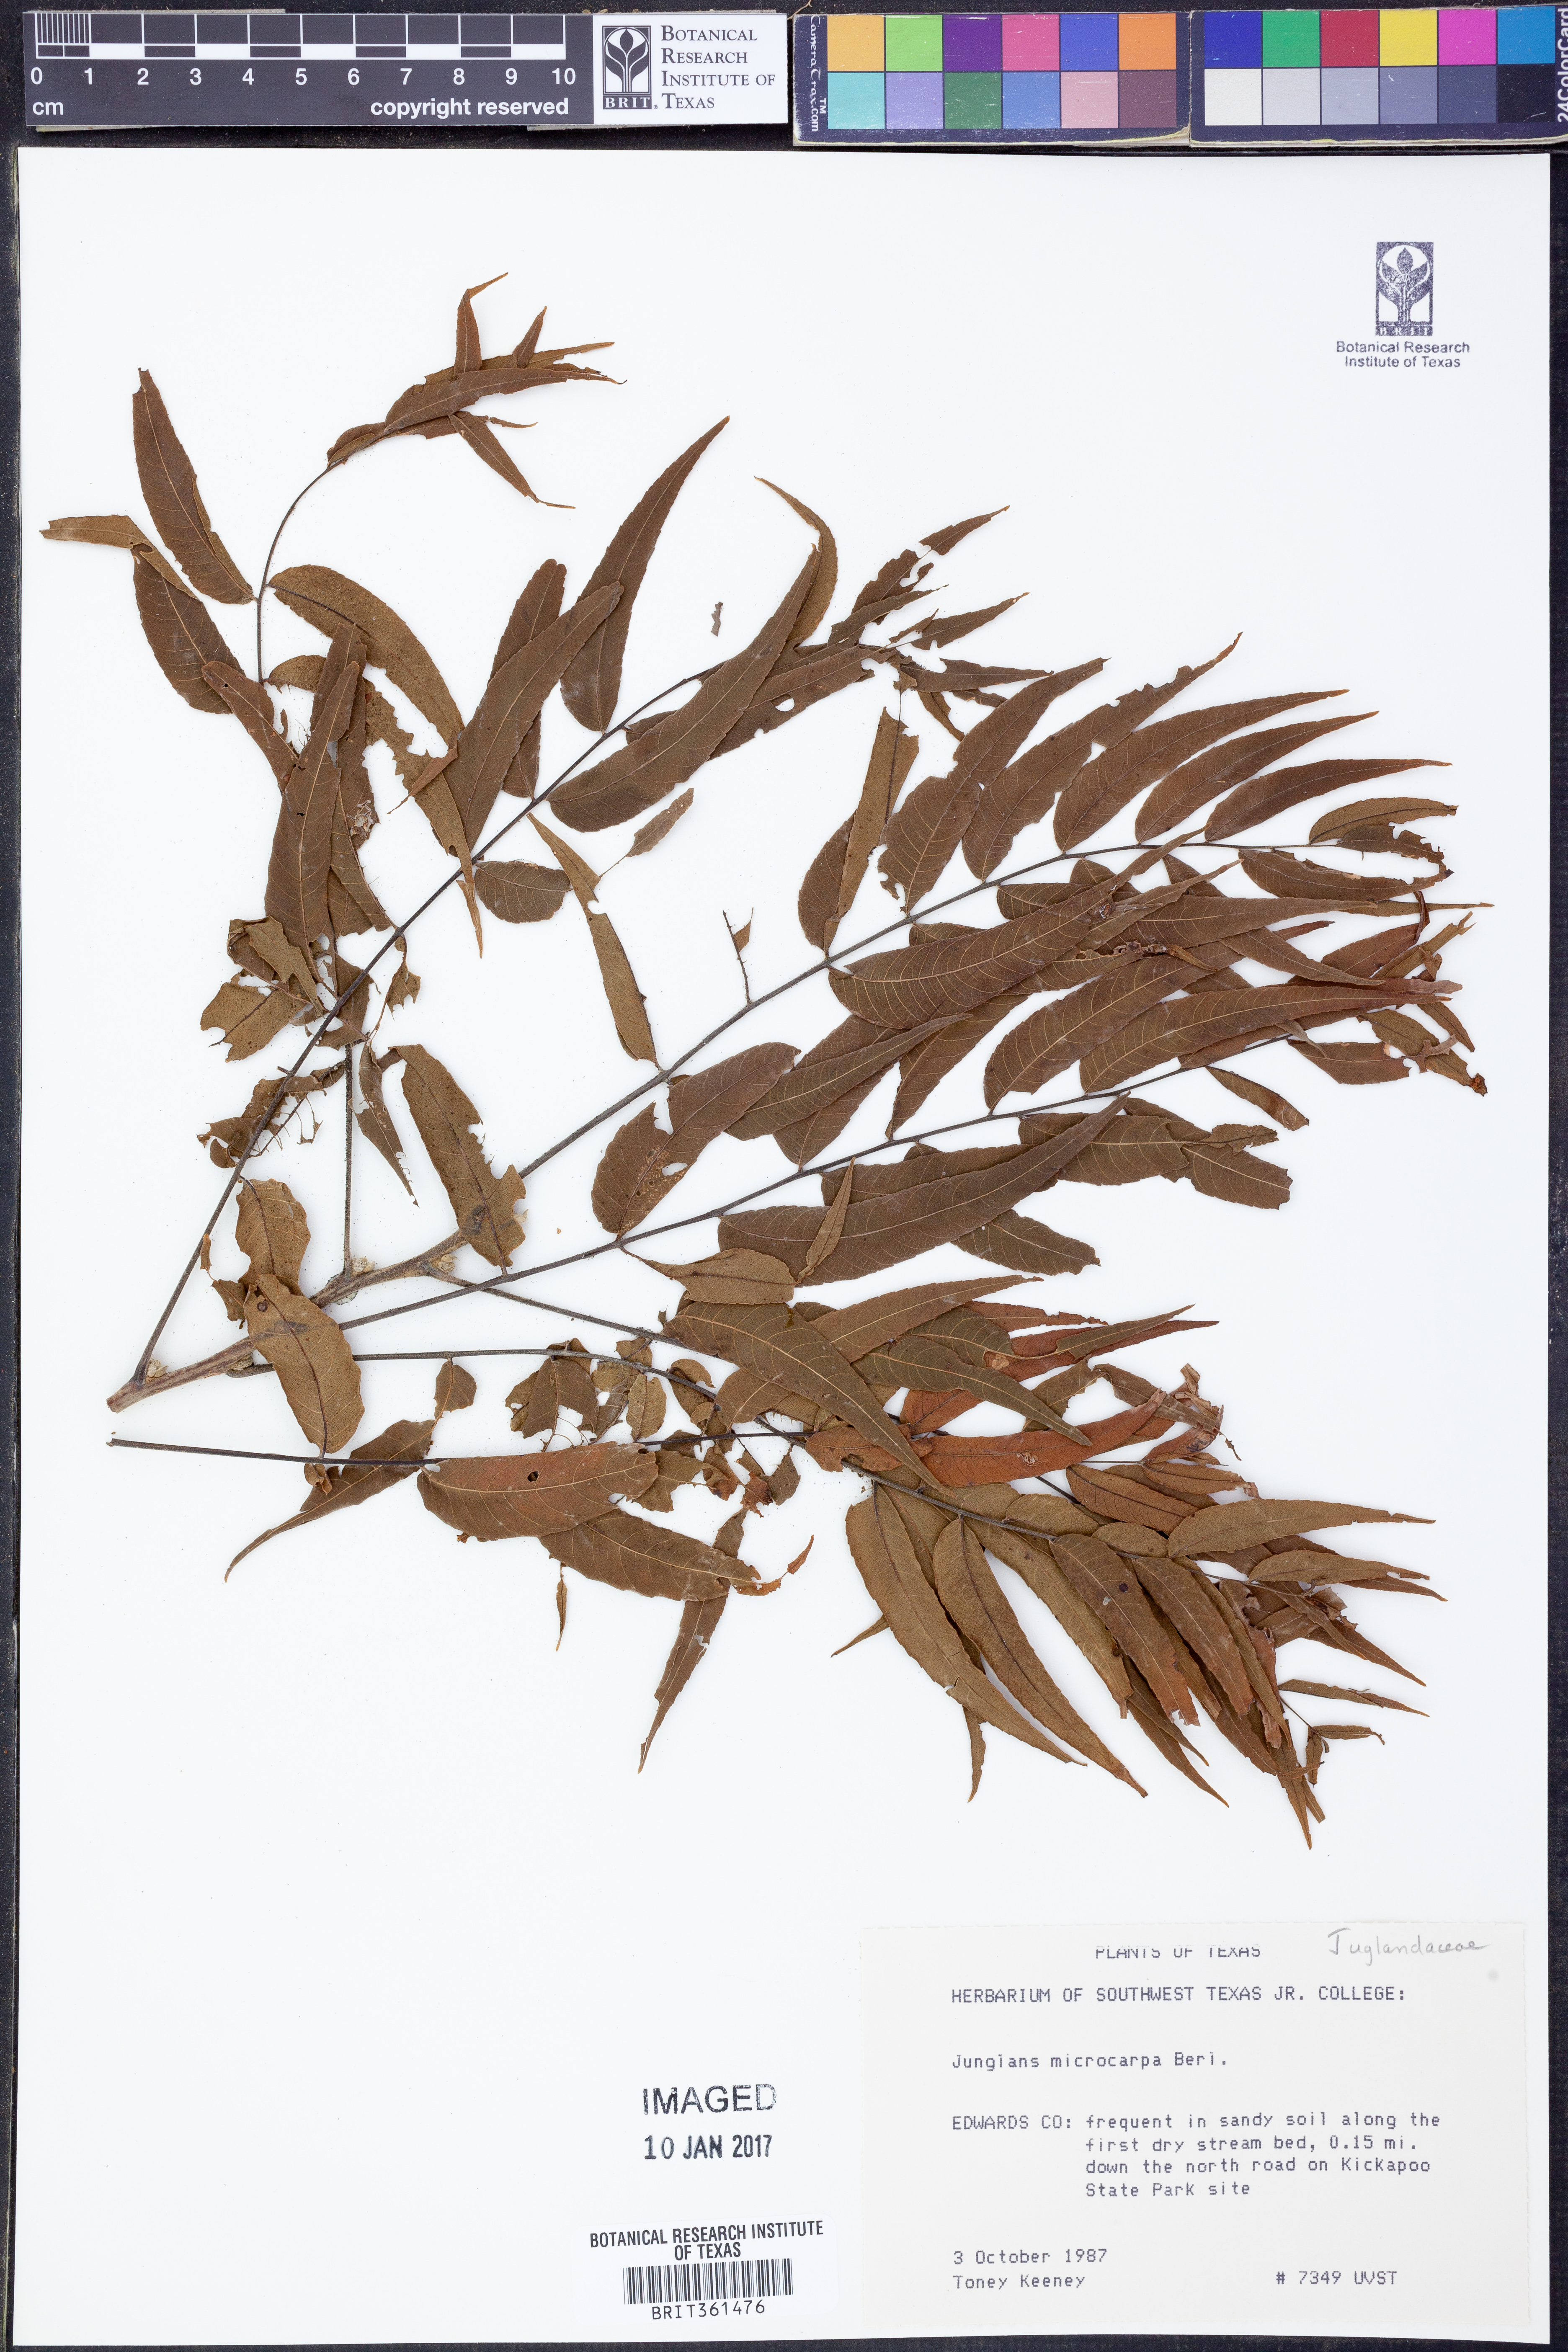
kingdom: Plantae
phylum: Tracheophyta
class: Magnoliopsida
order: Fagales
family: Juglandaceae
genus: Juglans
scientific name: Juglans microcarpa
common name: Texas walnut
